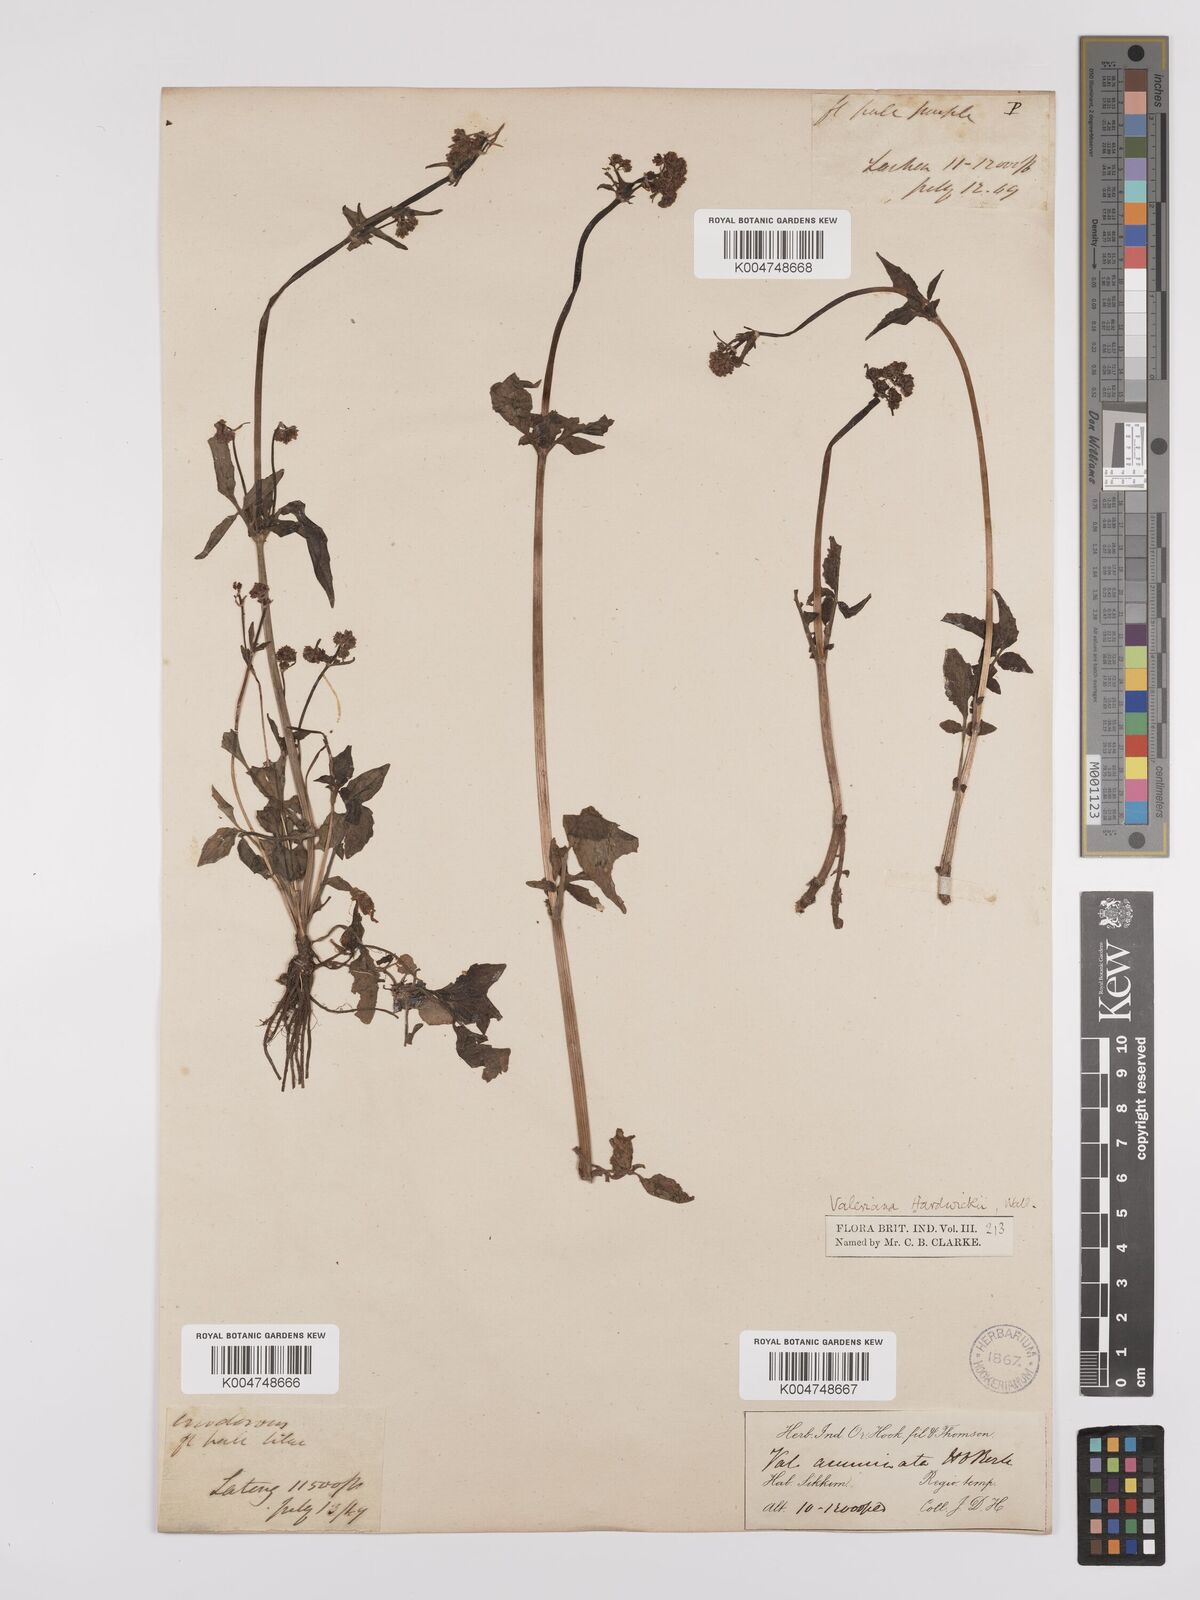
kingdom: Plantae
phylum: Tracheophyta
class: Magnoliopsida
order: Dipsacales
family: Caprifoliaceae
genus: Valeriana
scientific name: Valeriana hardwickei
